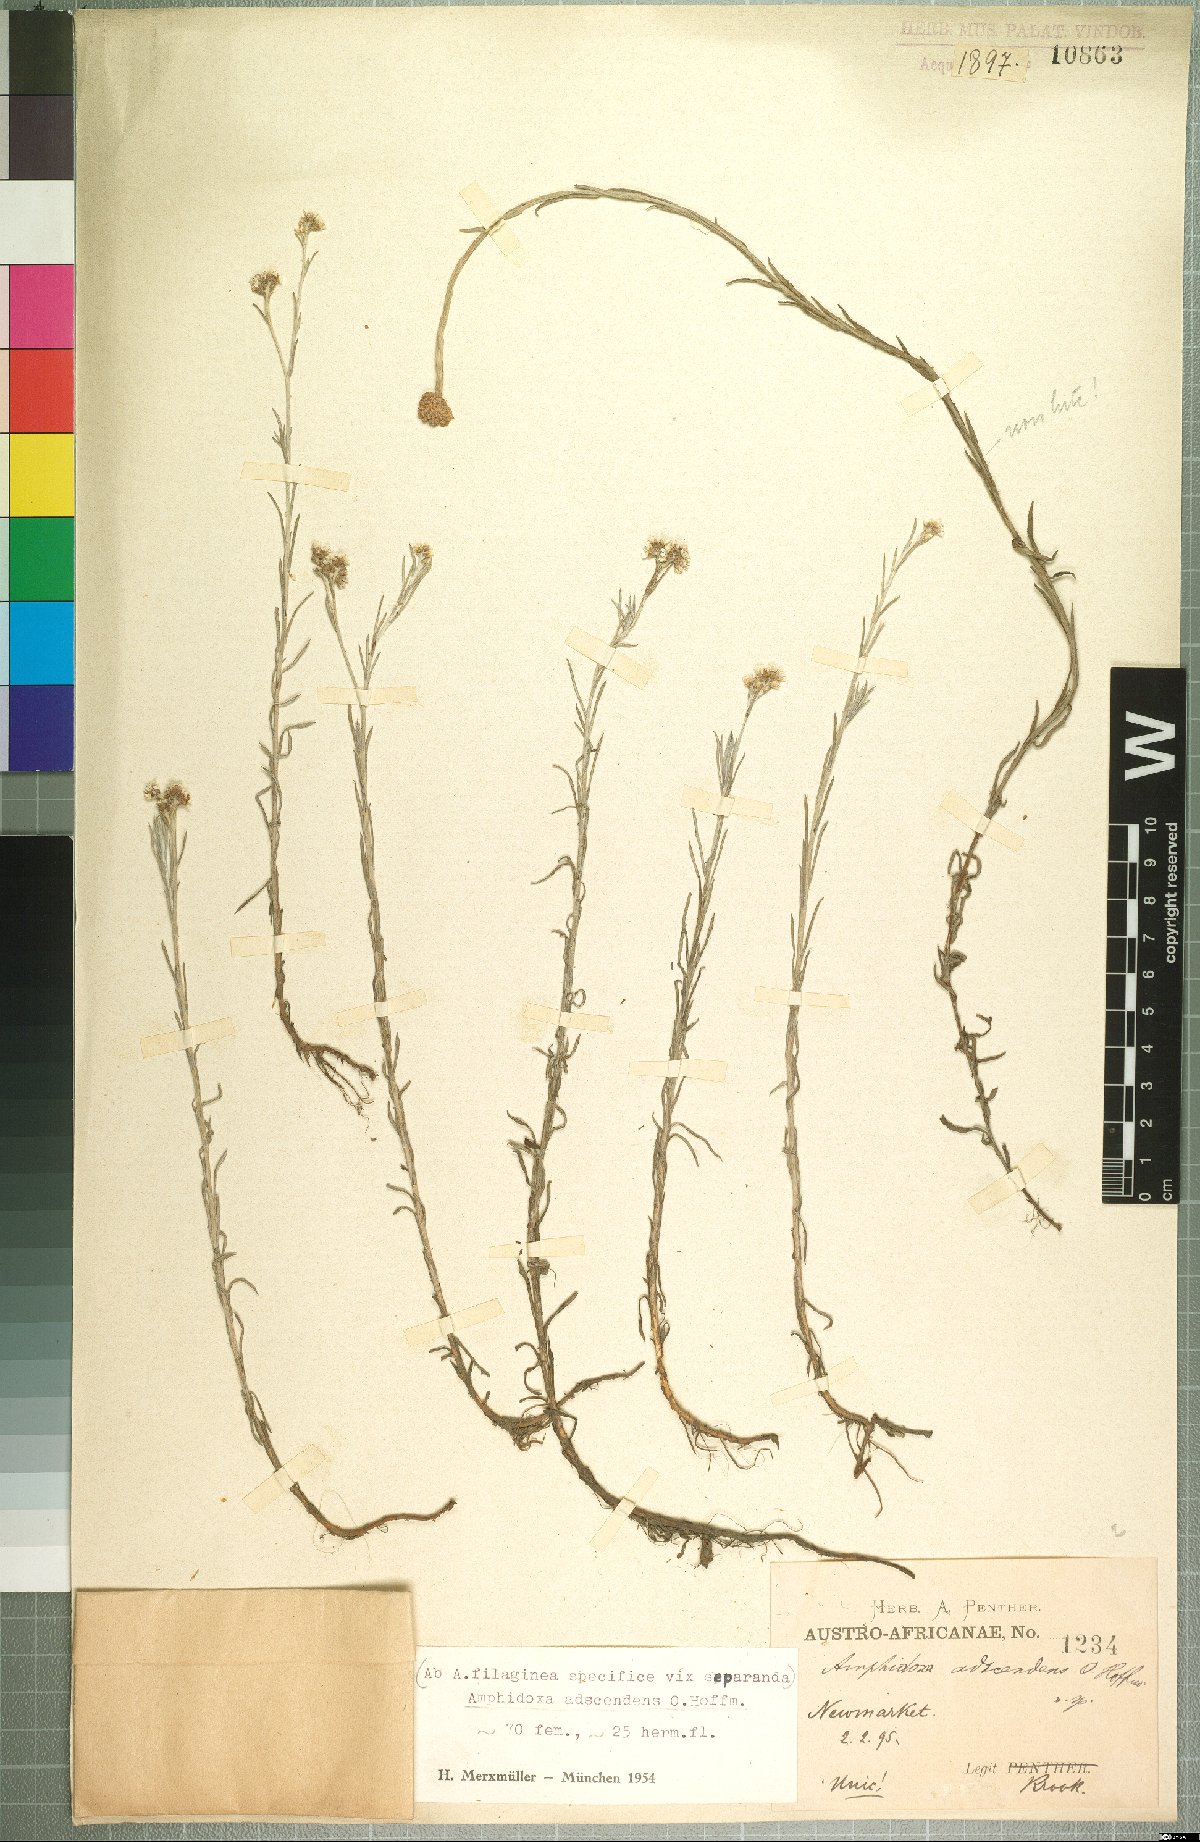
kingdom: Plantae
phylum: Tracheophyta
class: Magnoliopsida
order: Asterales
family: Asteraceae
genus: Gnaphalium
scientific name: Gnaphalium griquense
